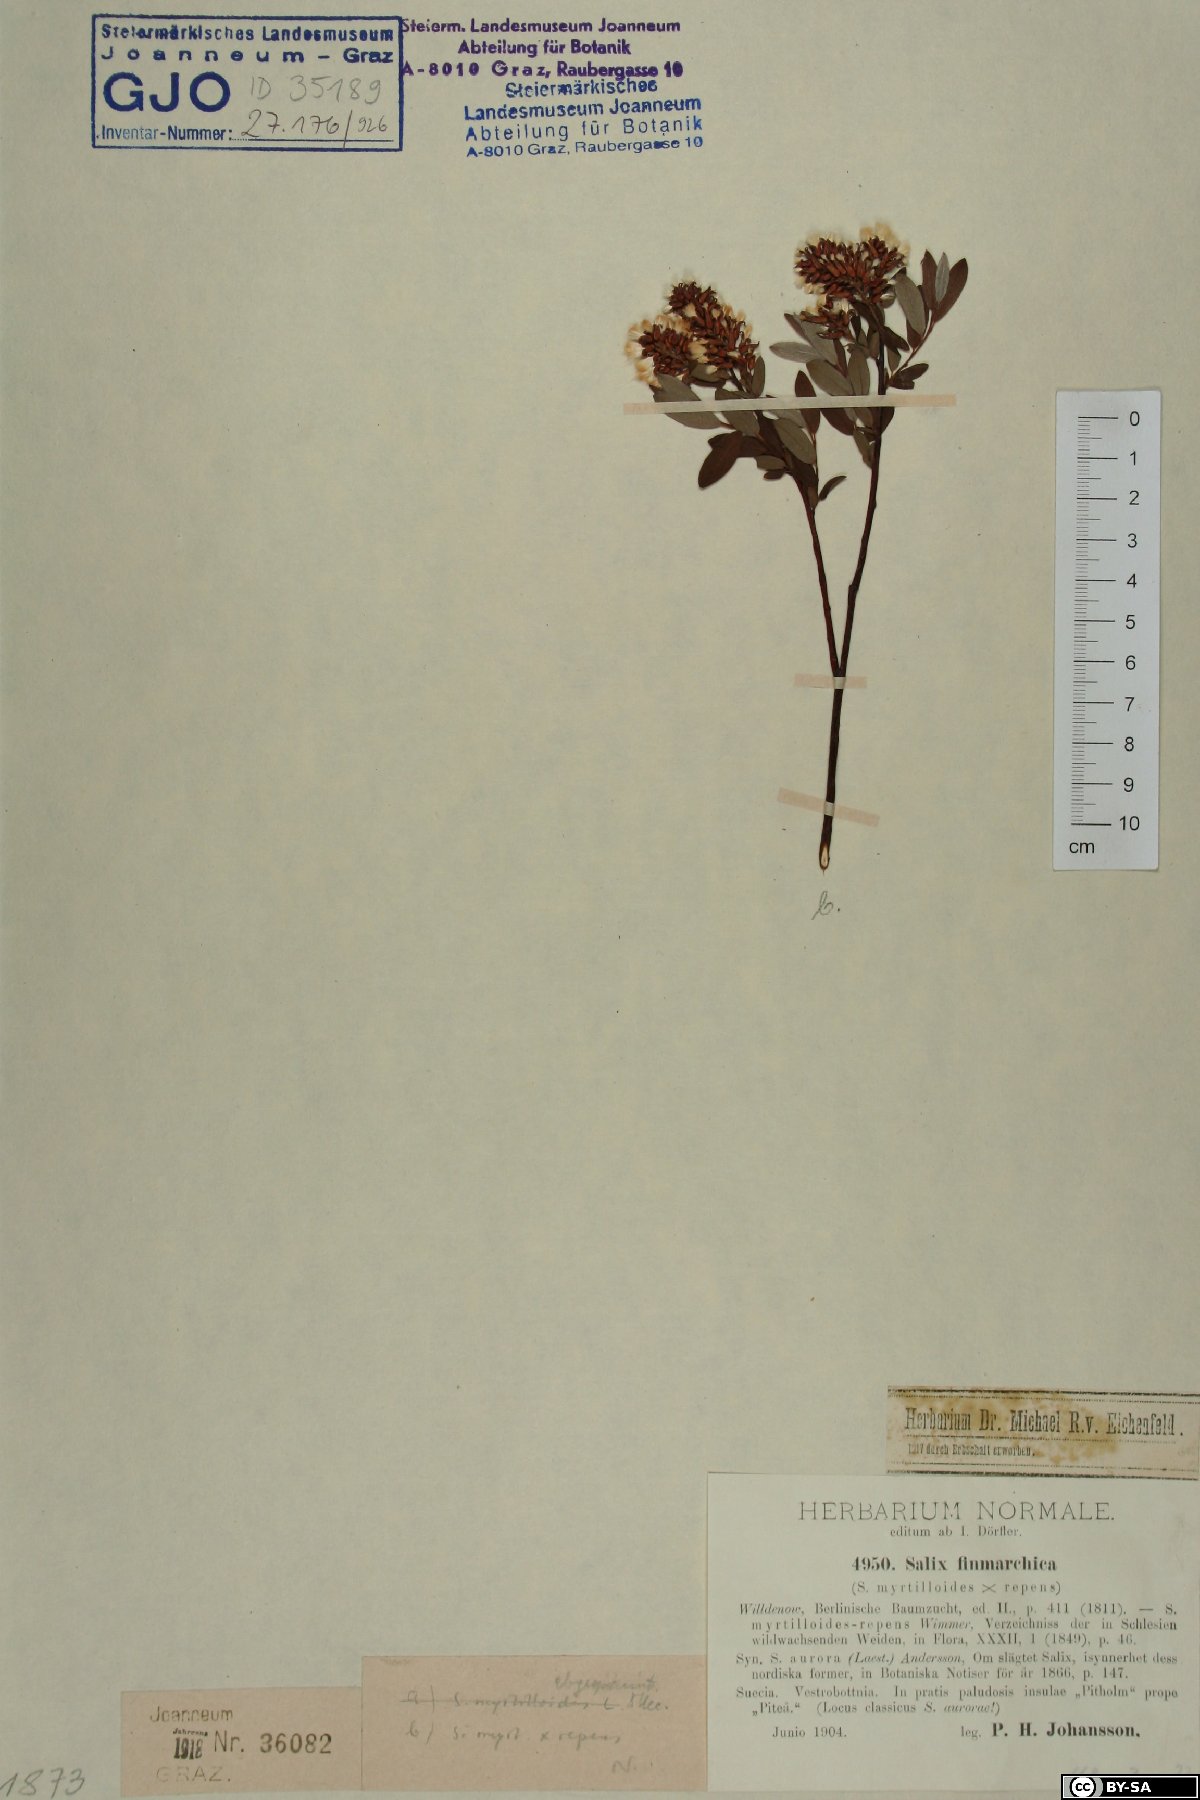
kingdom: Plantae
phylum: Tracheophyta
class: Magnoliopsida
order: Malpighiales
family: Salicaceae
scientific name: Salicaceae
